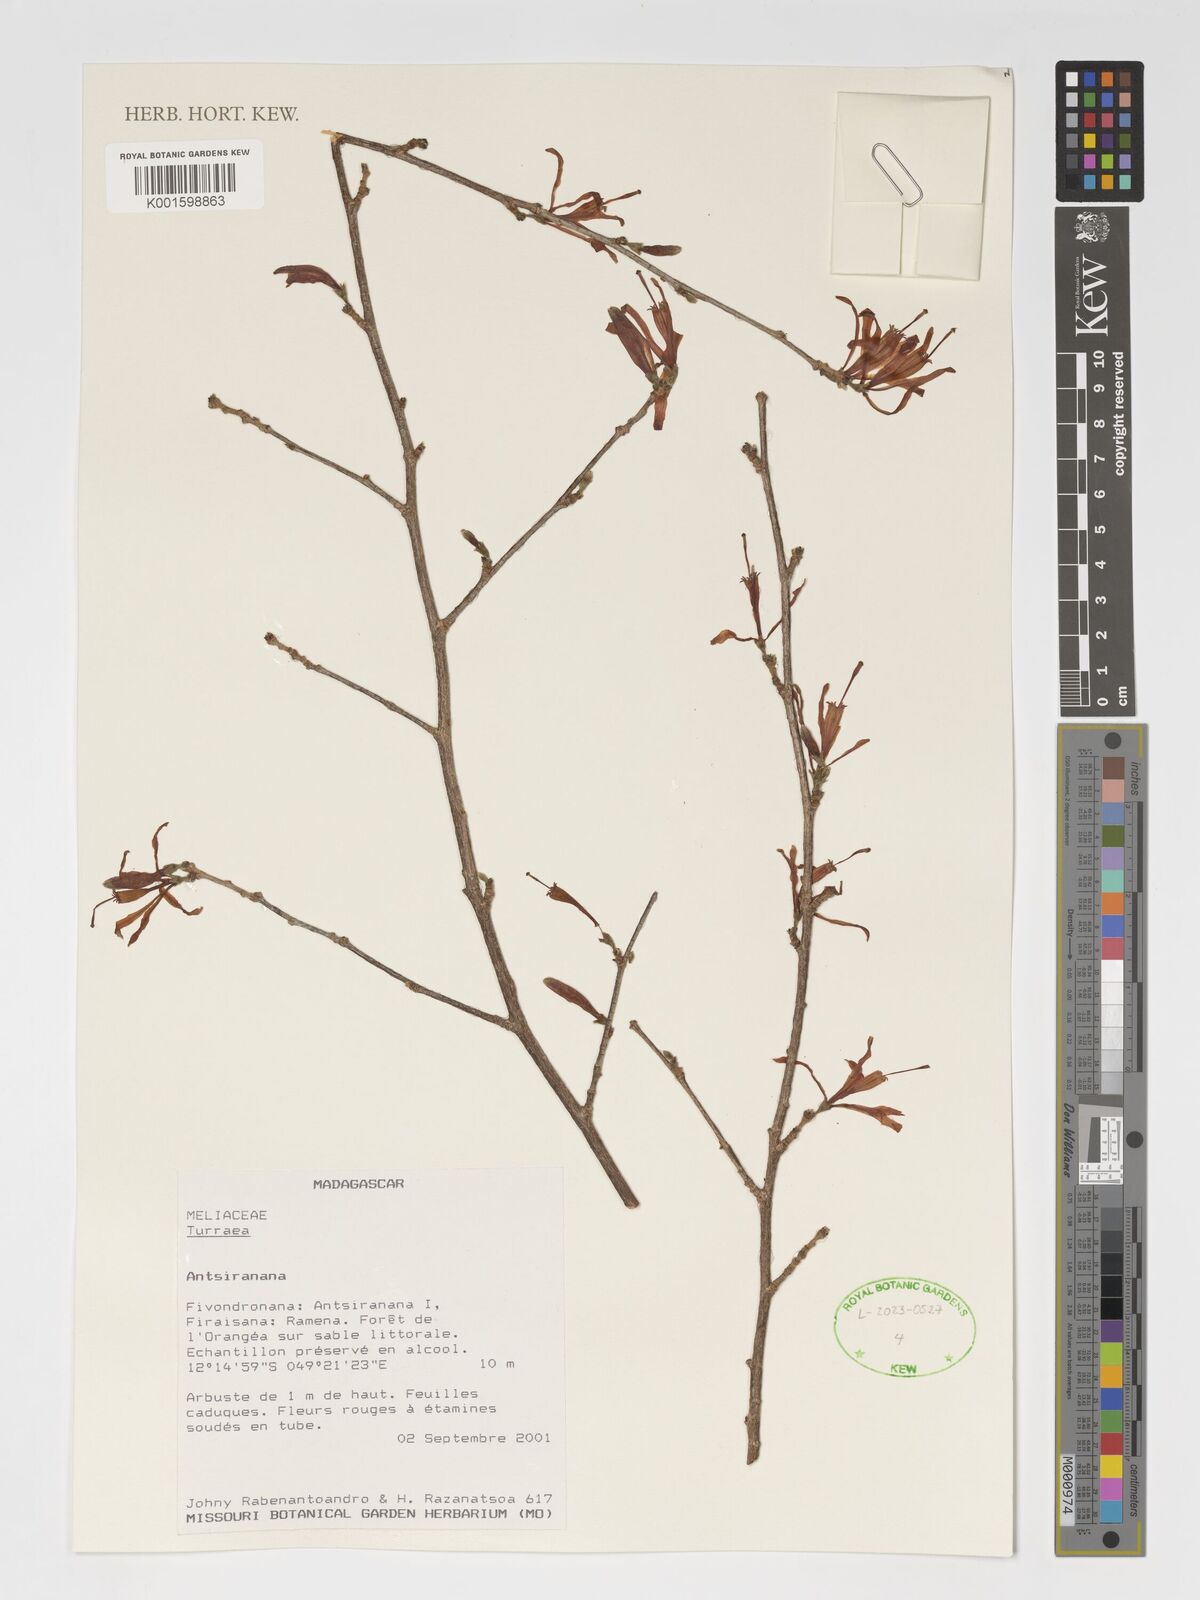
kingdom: Plantae
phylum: Tracheophyta
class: Magnoliopsida
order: Sapindales
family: Meliaceae
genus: Turraea
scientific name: Turraea
